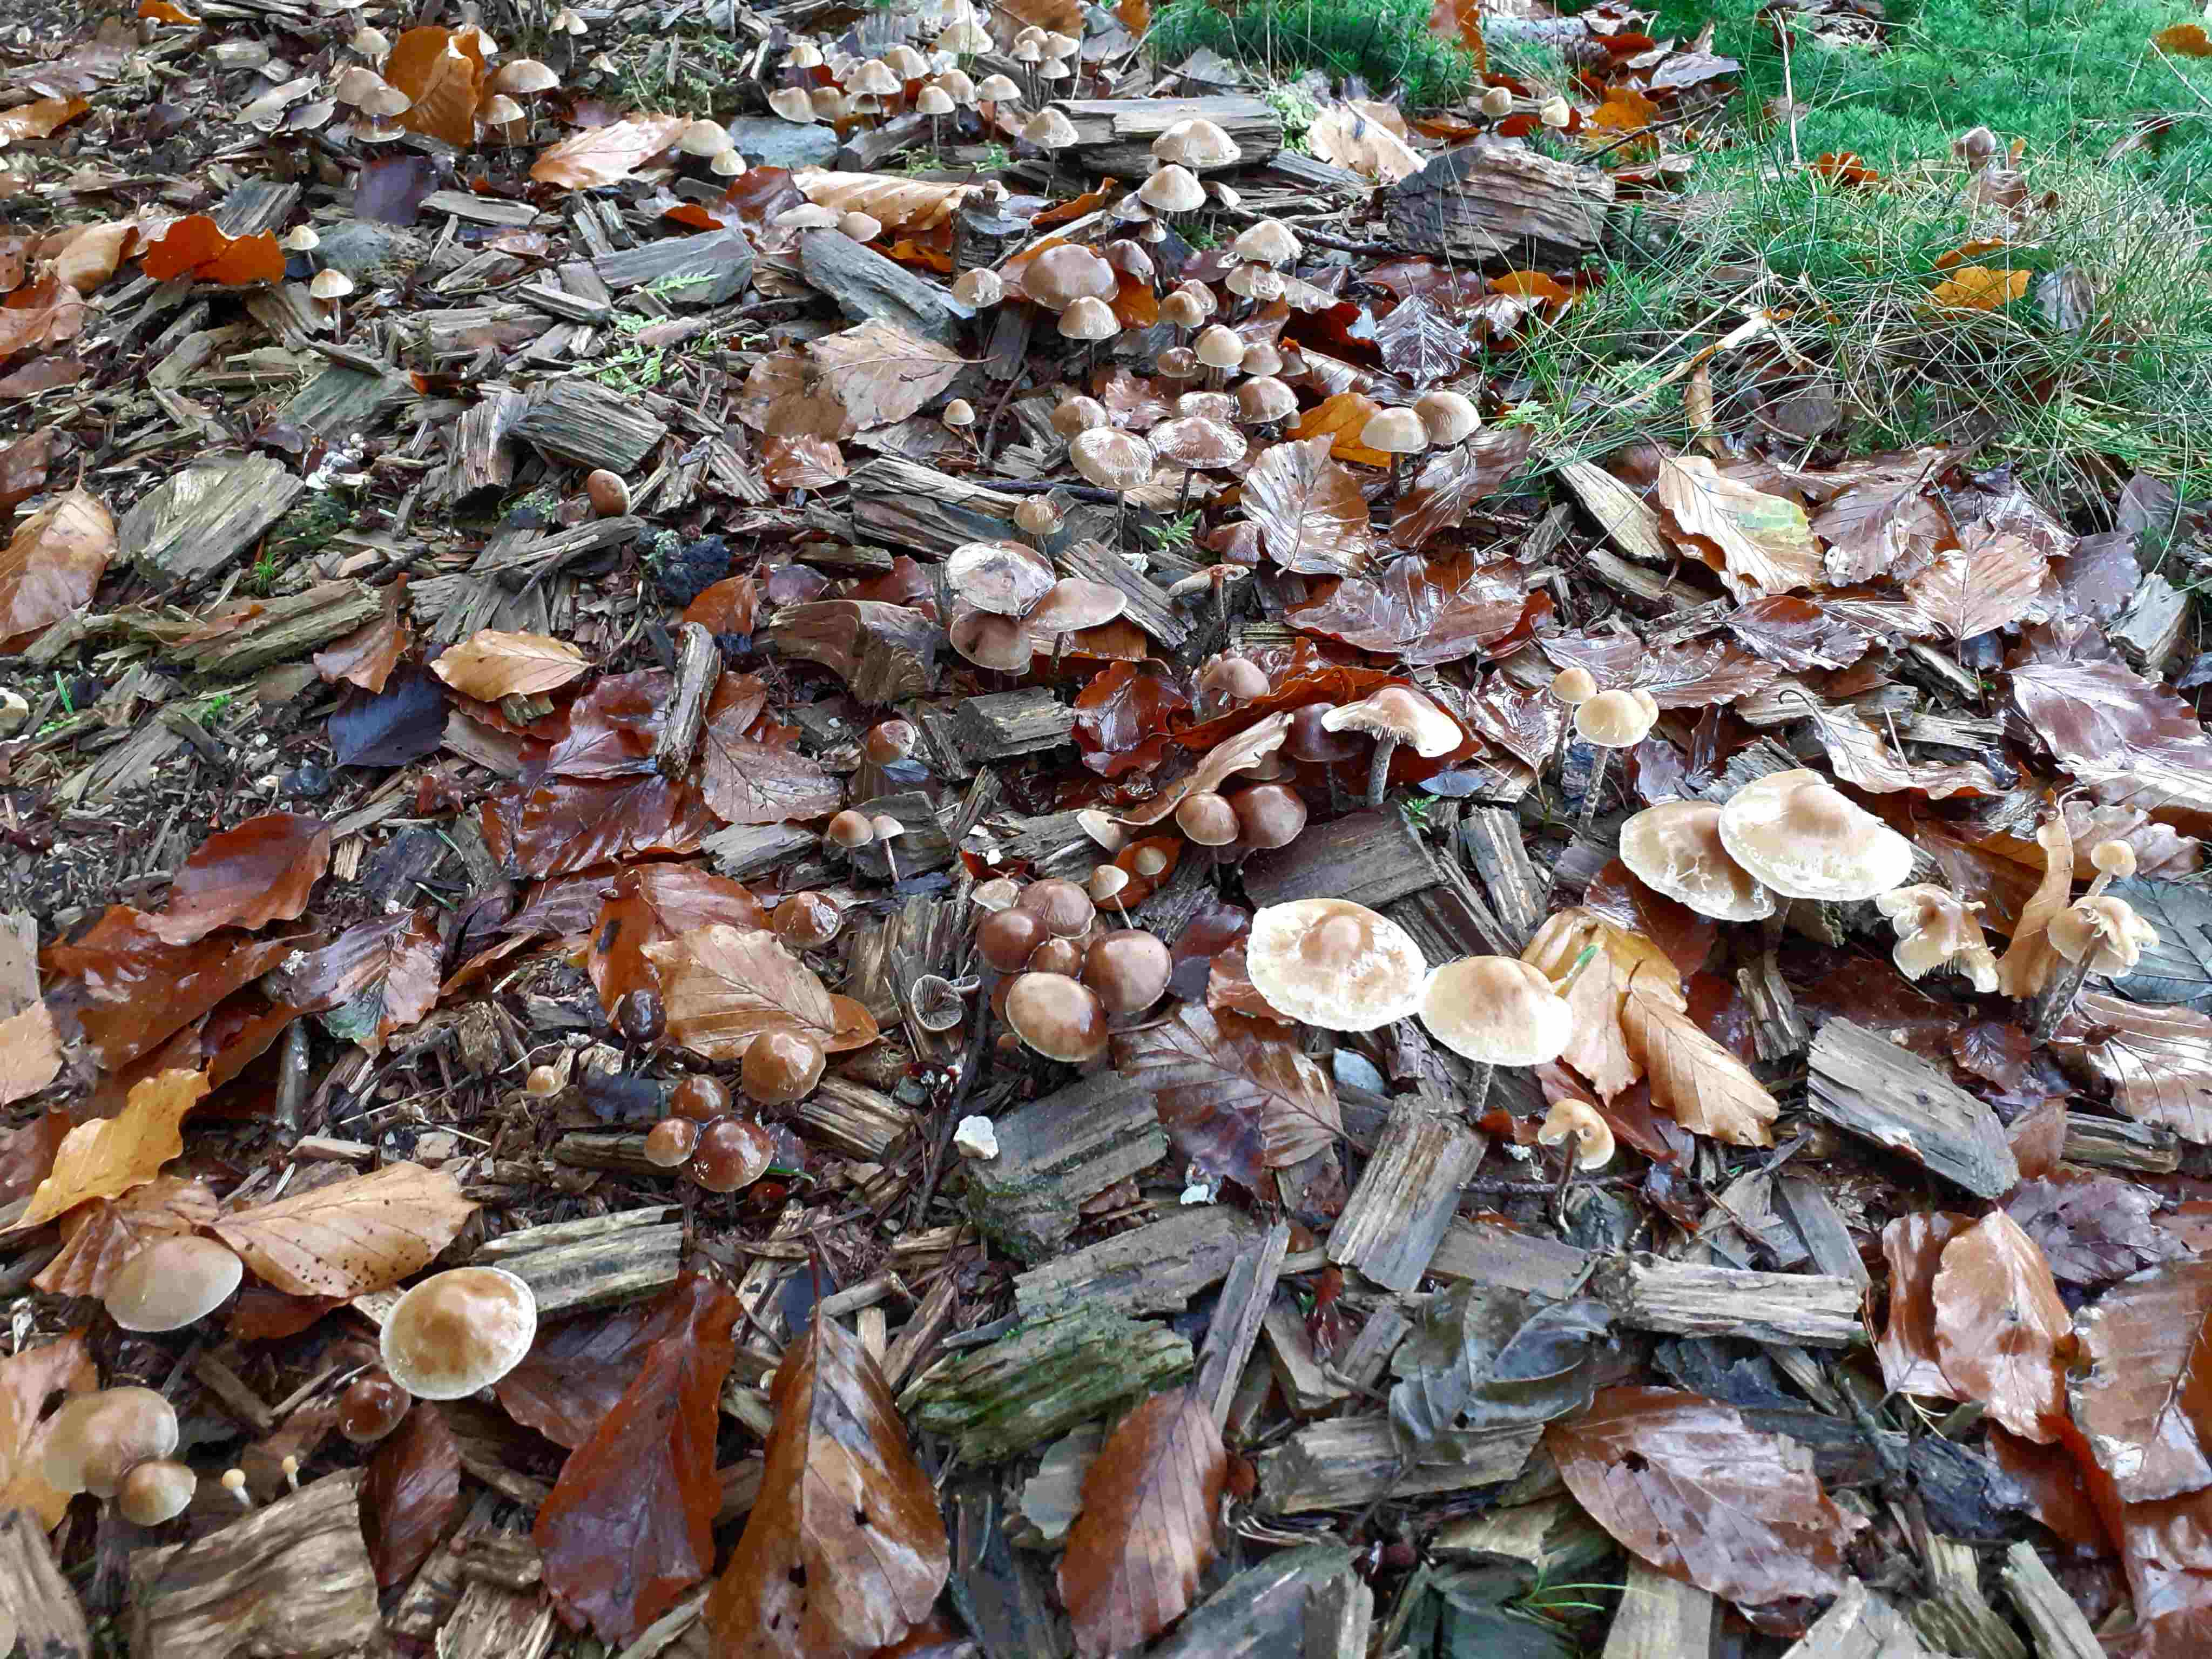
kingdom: Fungi
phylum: Basidiomycota
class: Agaricomycetes
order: Agaricales
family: Strophariaceae
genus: Hypholoma
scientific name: Hypholoma marginatum
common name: enlig svovlhat
